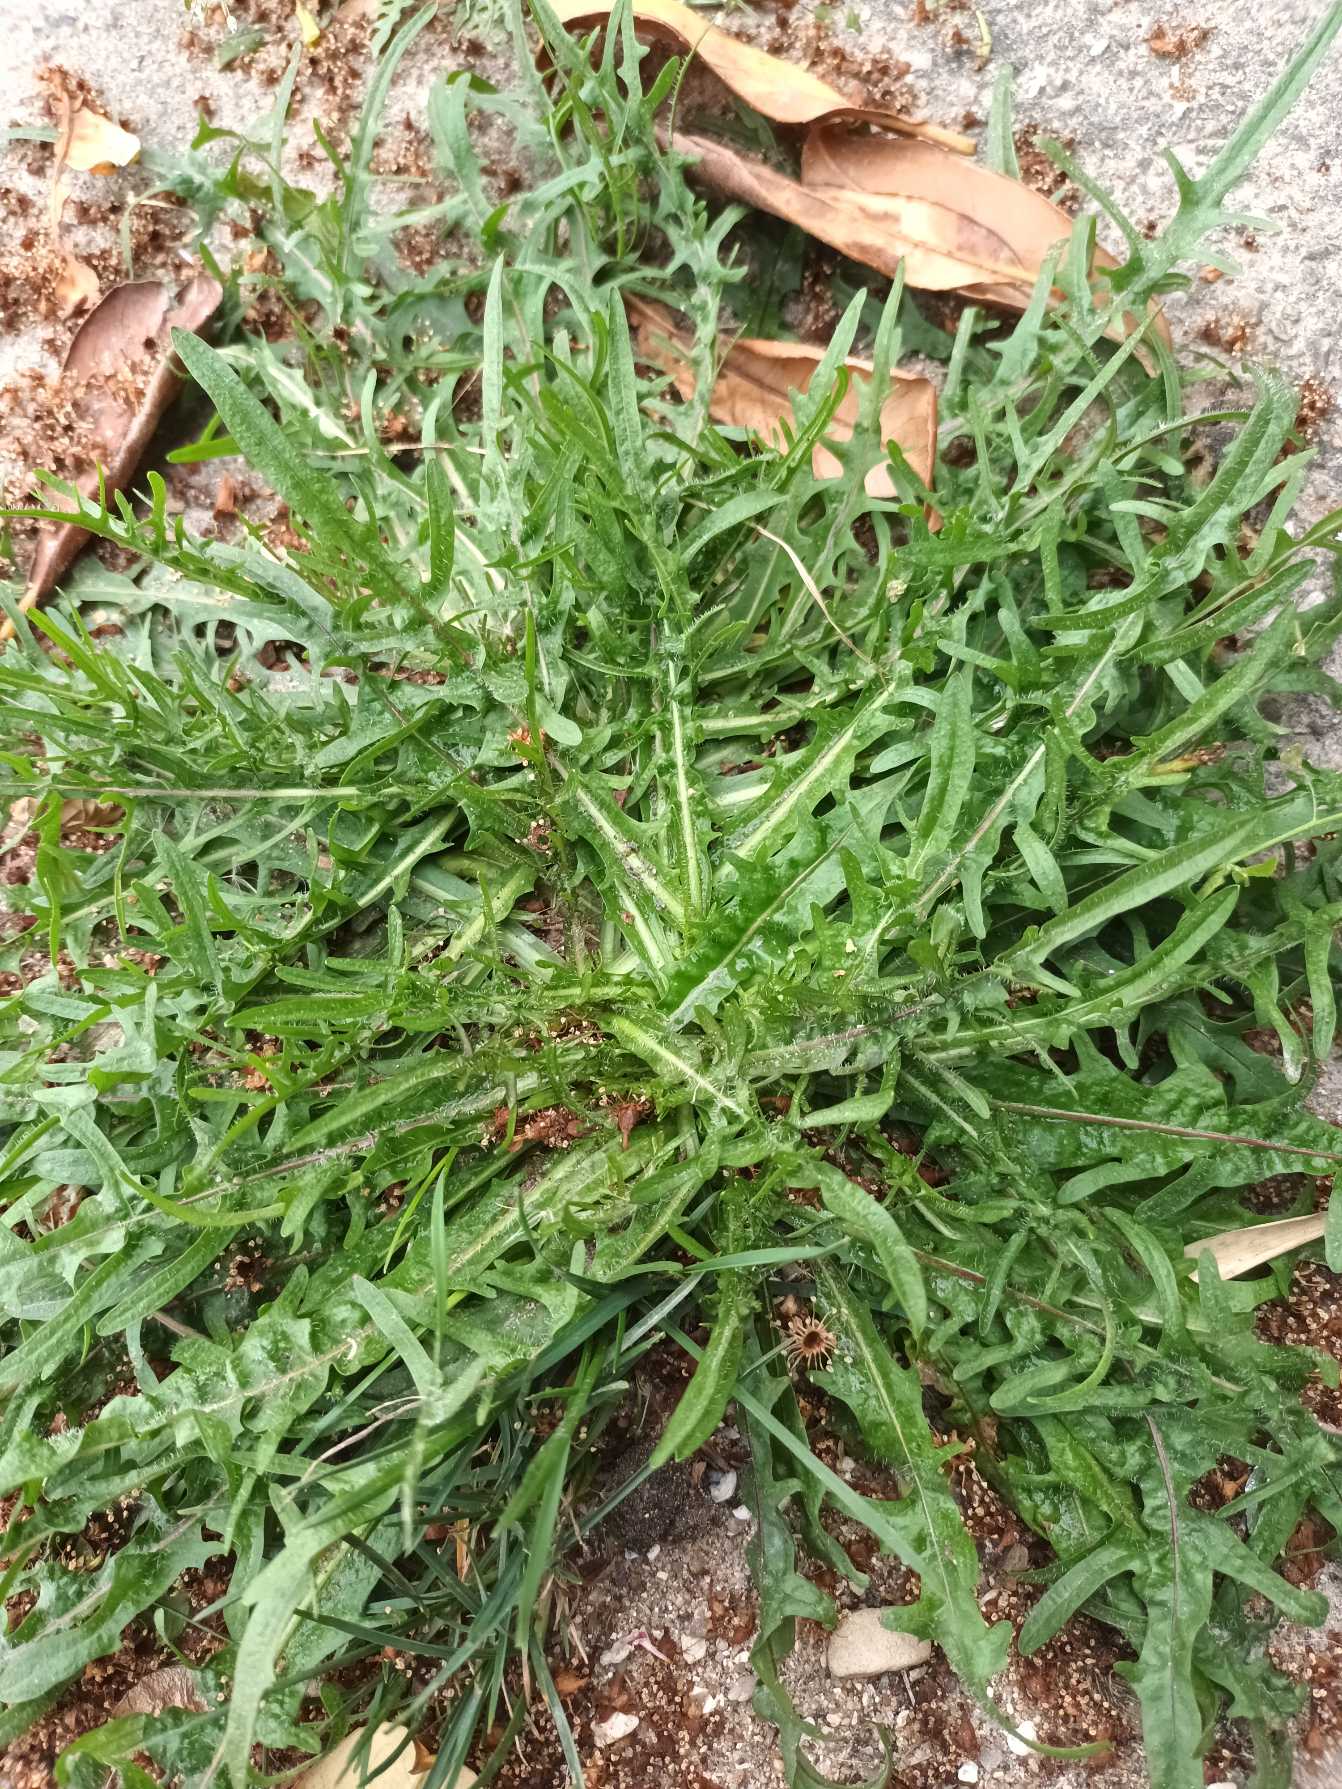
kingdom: Plantae
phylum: Tracheophyta
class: Magnoliopsida
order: Asterales
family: Asteraceae
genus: Scorzoneroides
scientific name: Scorzoneroides autumnalis
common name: Høst-borst
